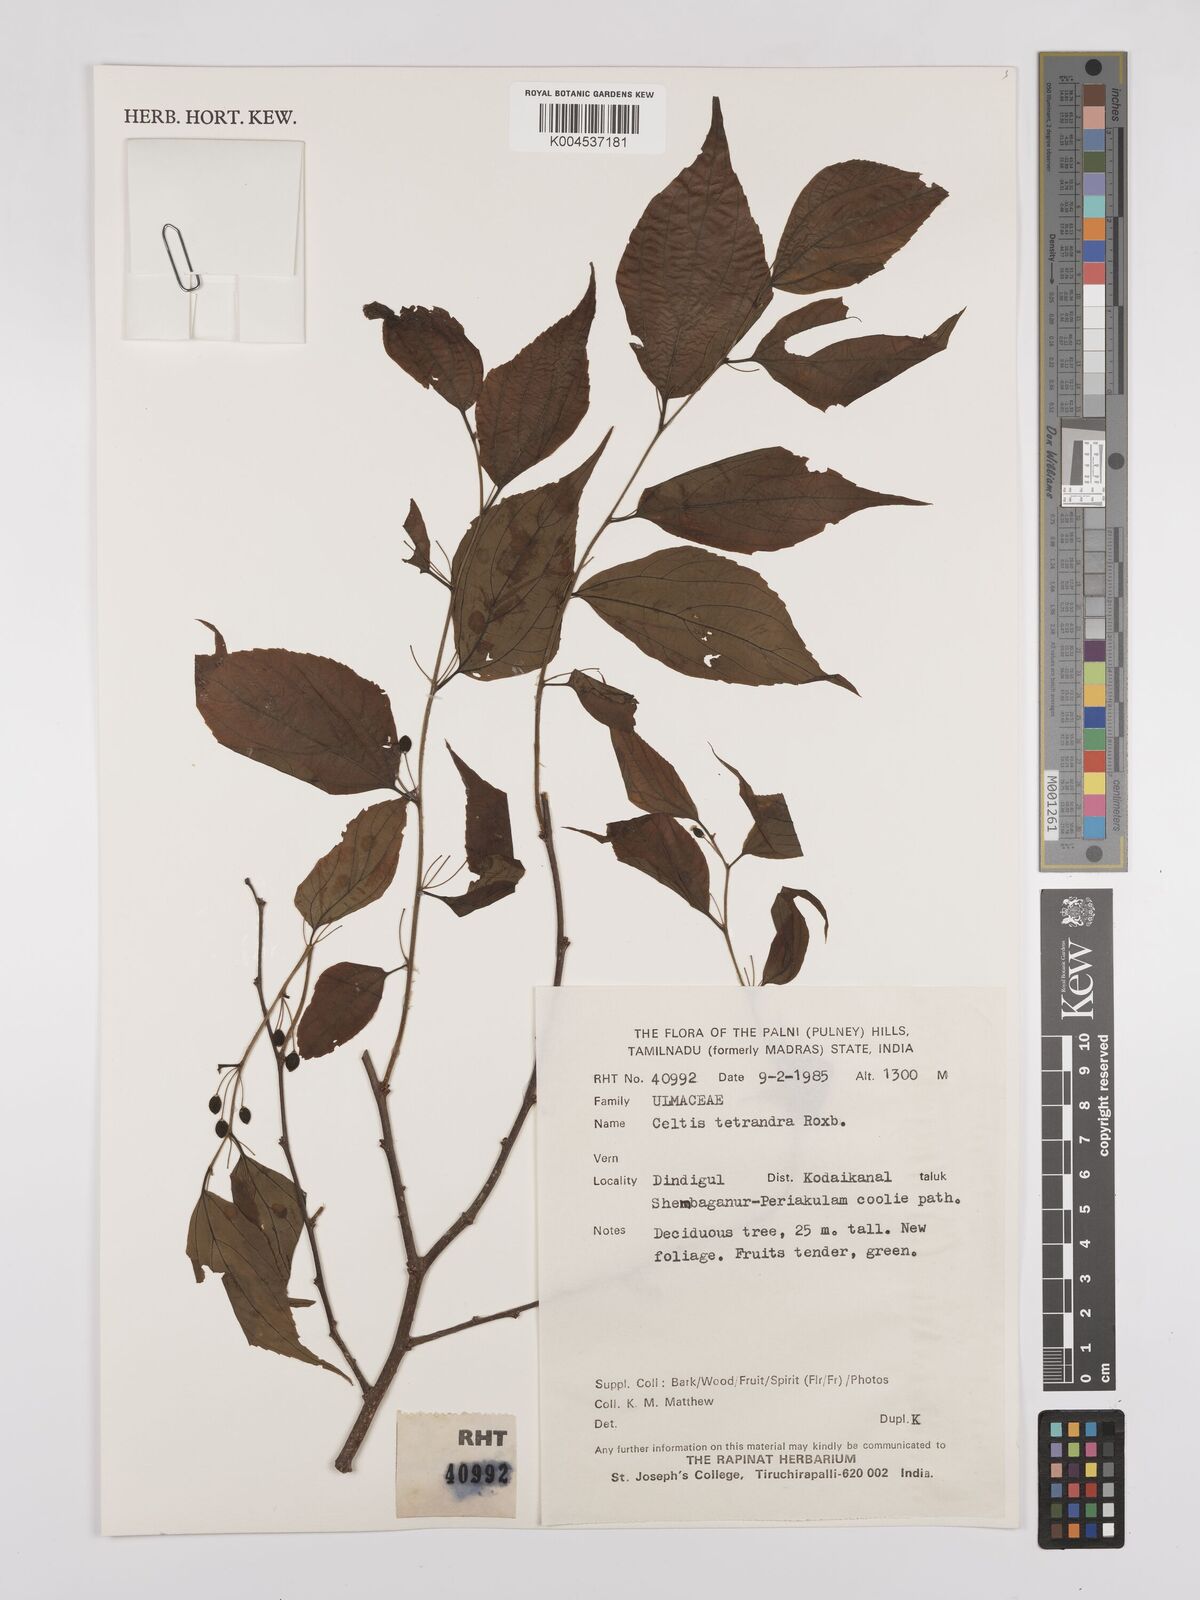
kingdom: Plantae
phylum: Tracheophyta
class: Magnoliopsida
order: Rosales
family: Cannabaceae
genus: Celtis
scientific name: Celtis tetrandra
